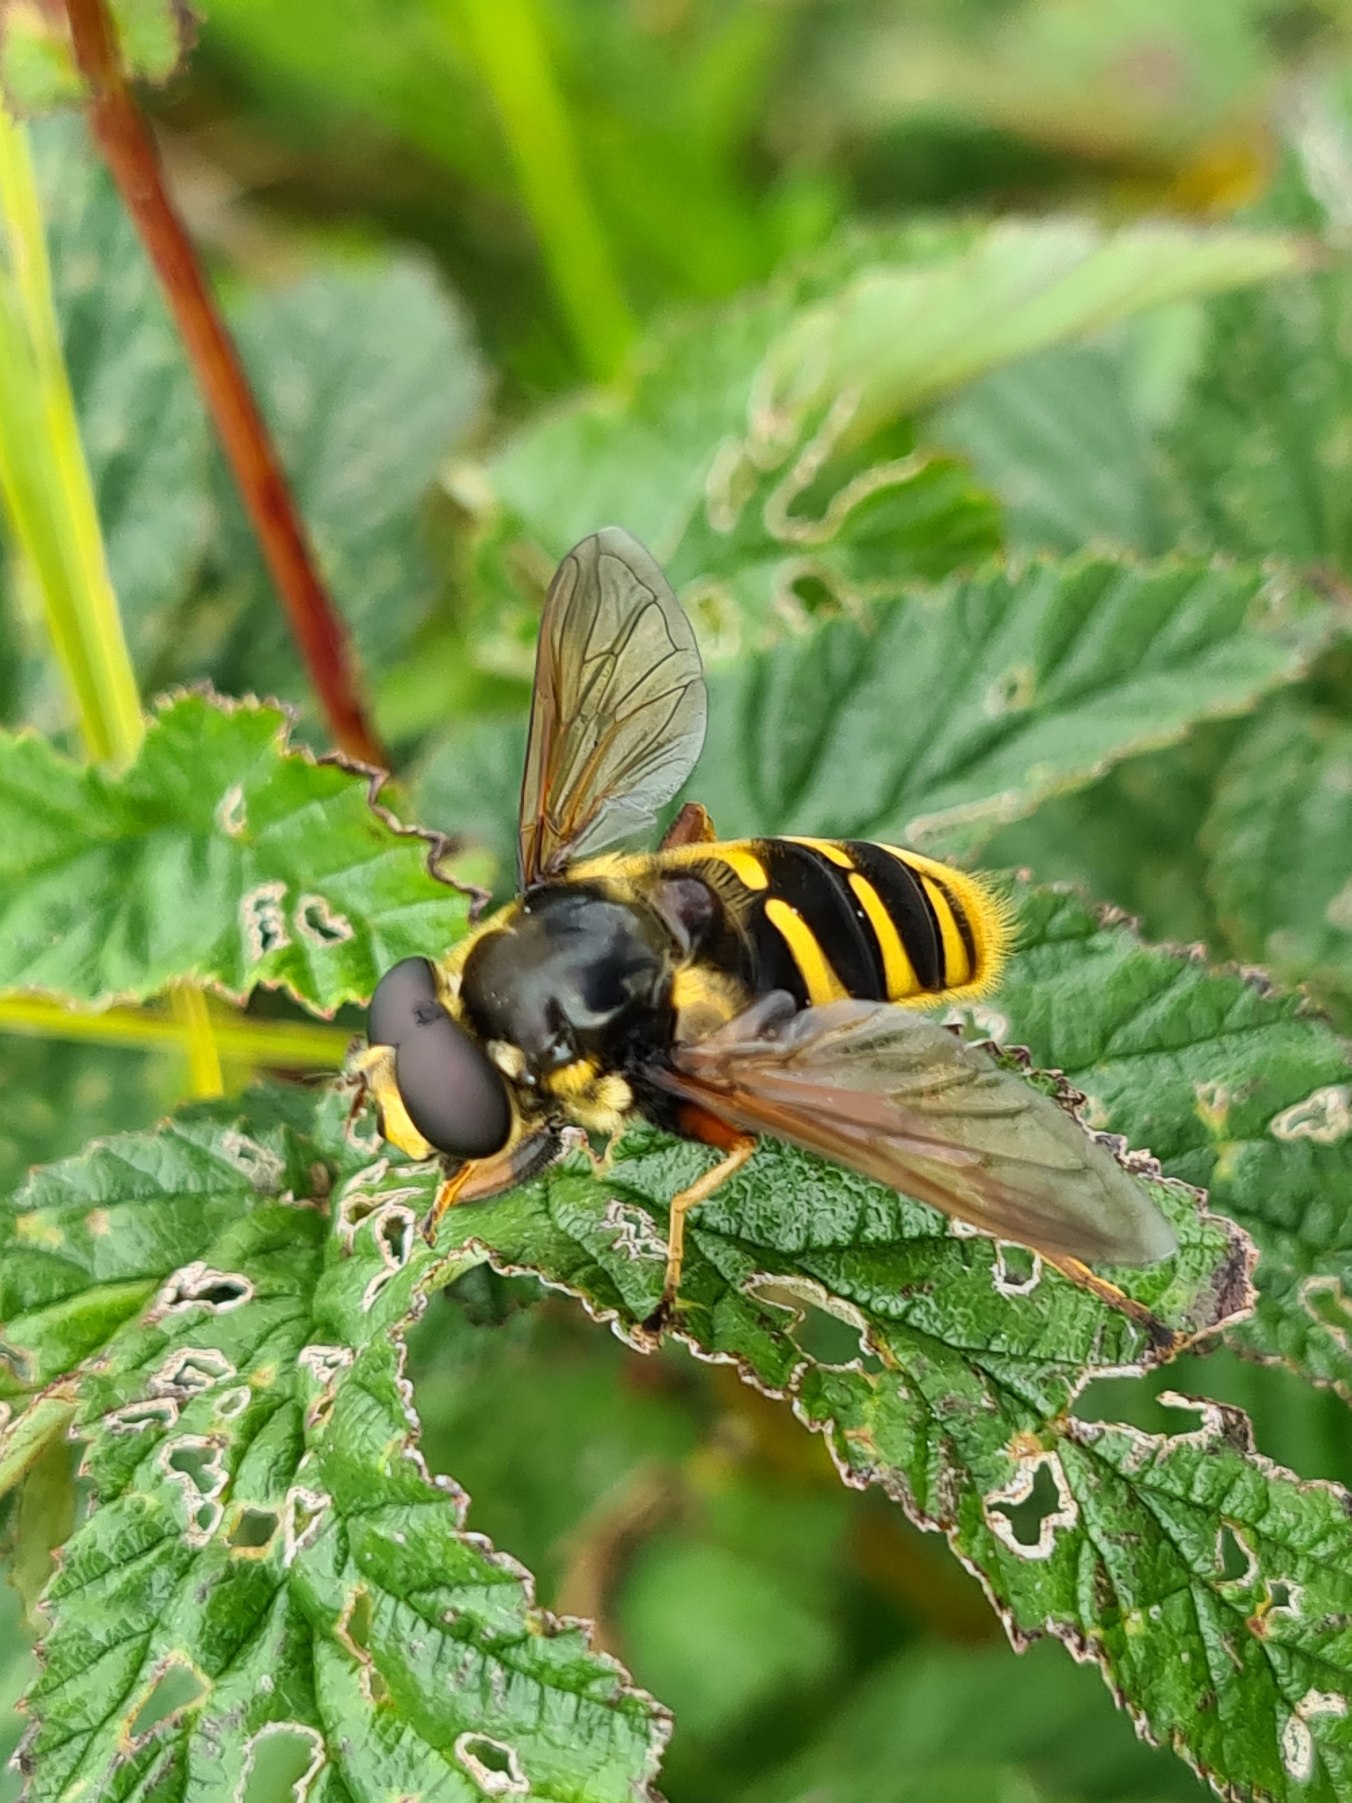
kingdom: Animalia
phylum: Arthropoda
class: Insecta
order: Diptera
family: Syrphidae
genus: Sericomyia
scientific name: Sericomyia silentis
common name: Tørve-silkesvirreflue
